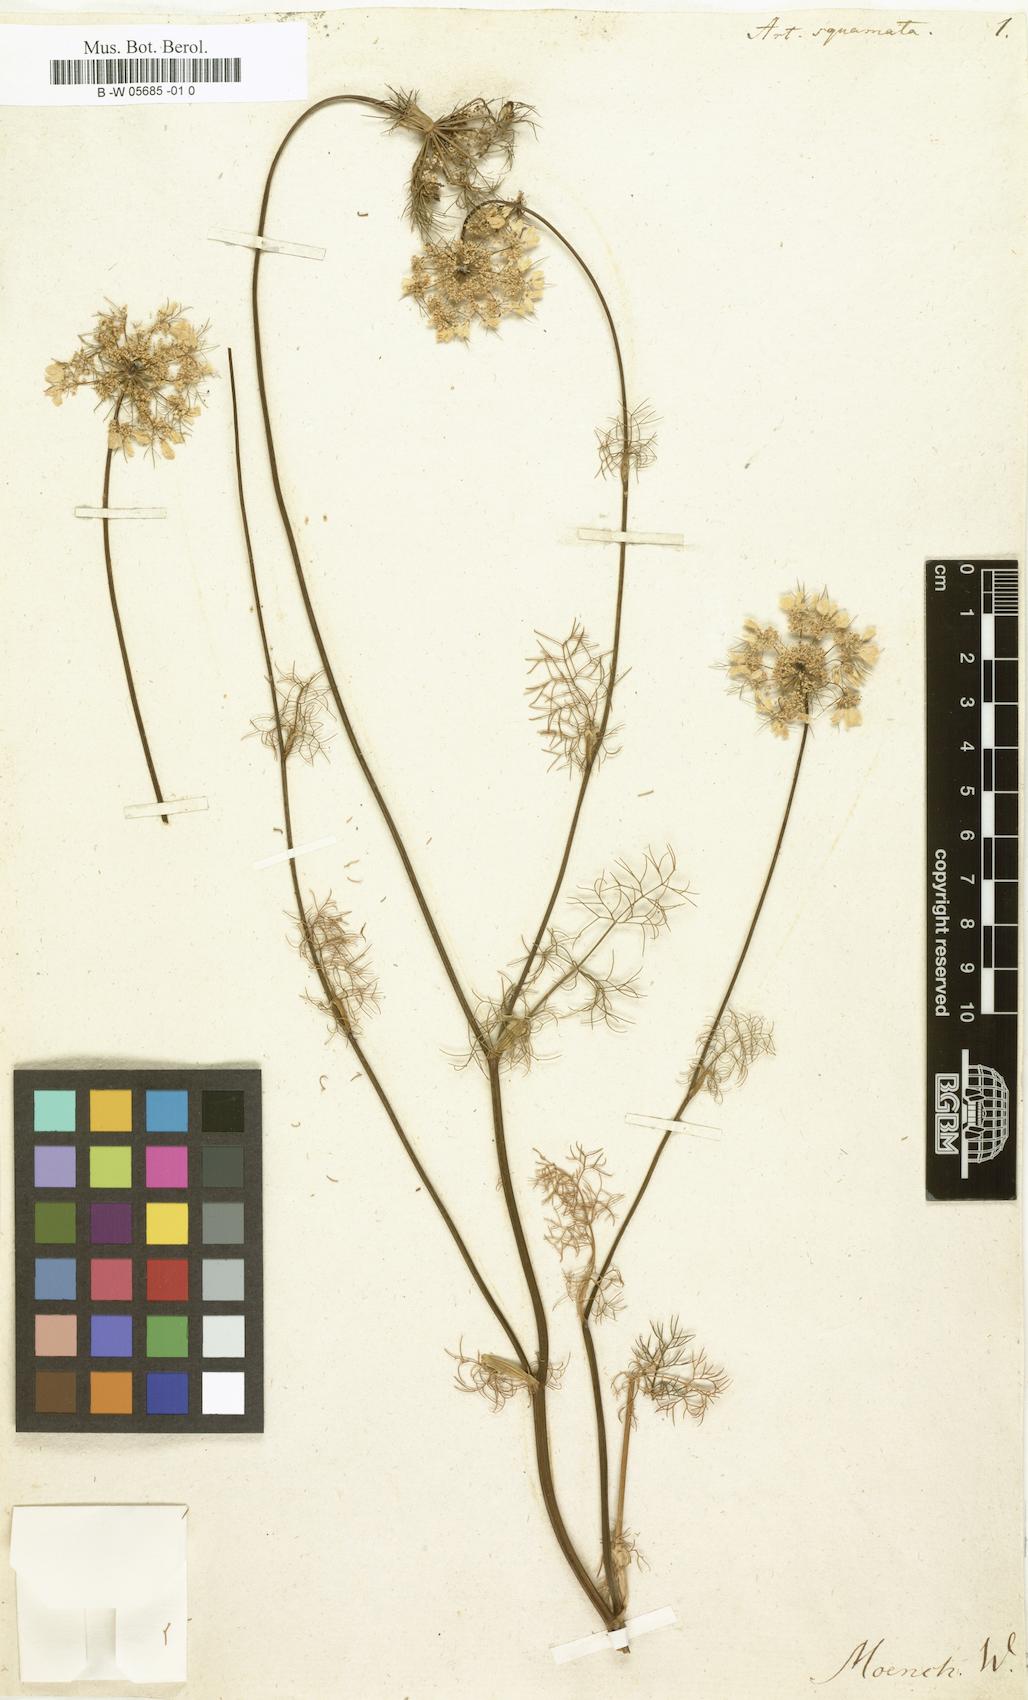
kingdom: Plantae
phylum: Tracheophyta
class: Magnoliopsida
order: Apiales
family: Apiaceae
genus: Artedia
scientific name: Artedia squamata
